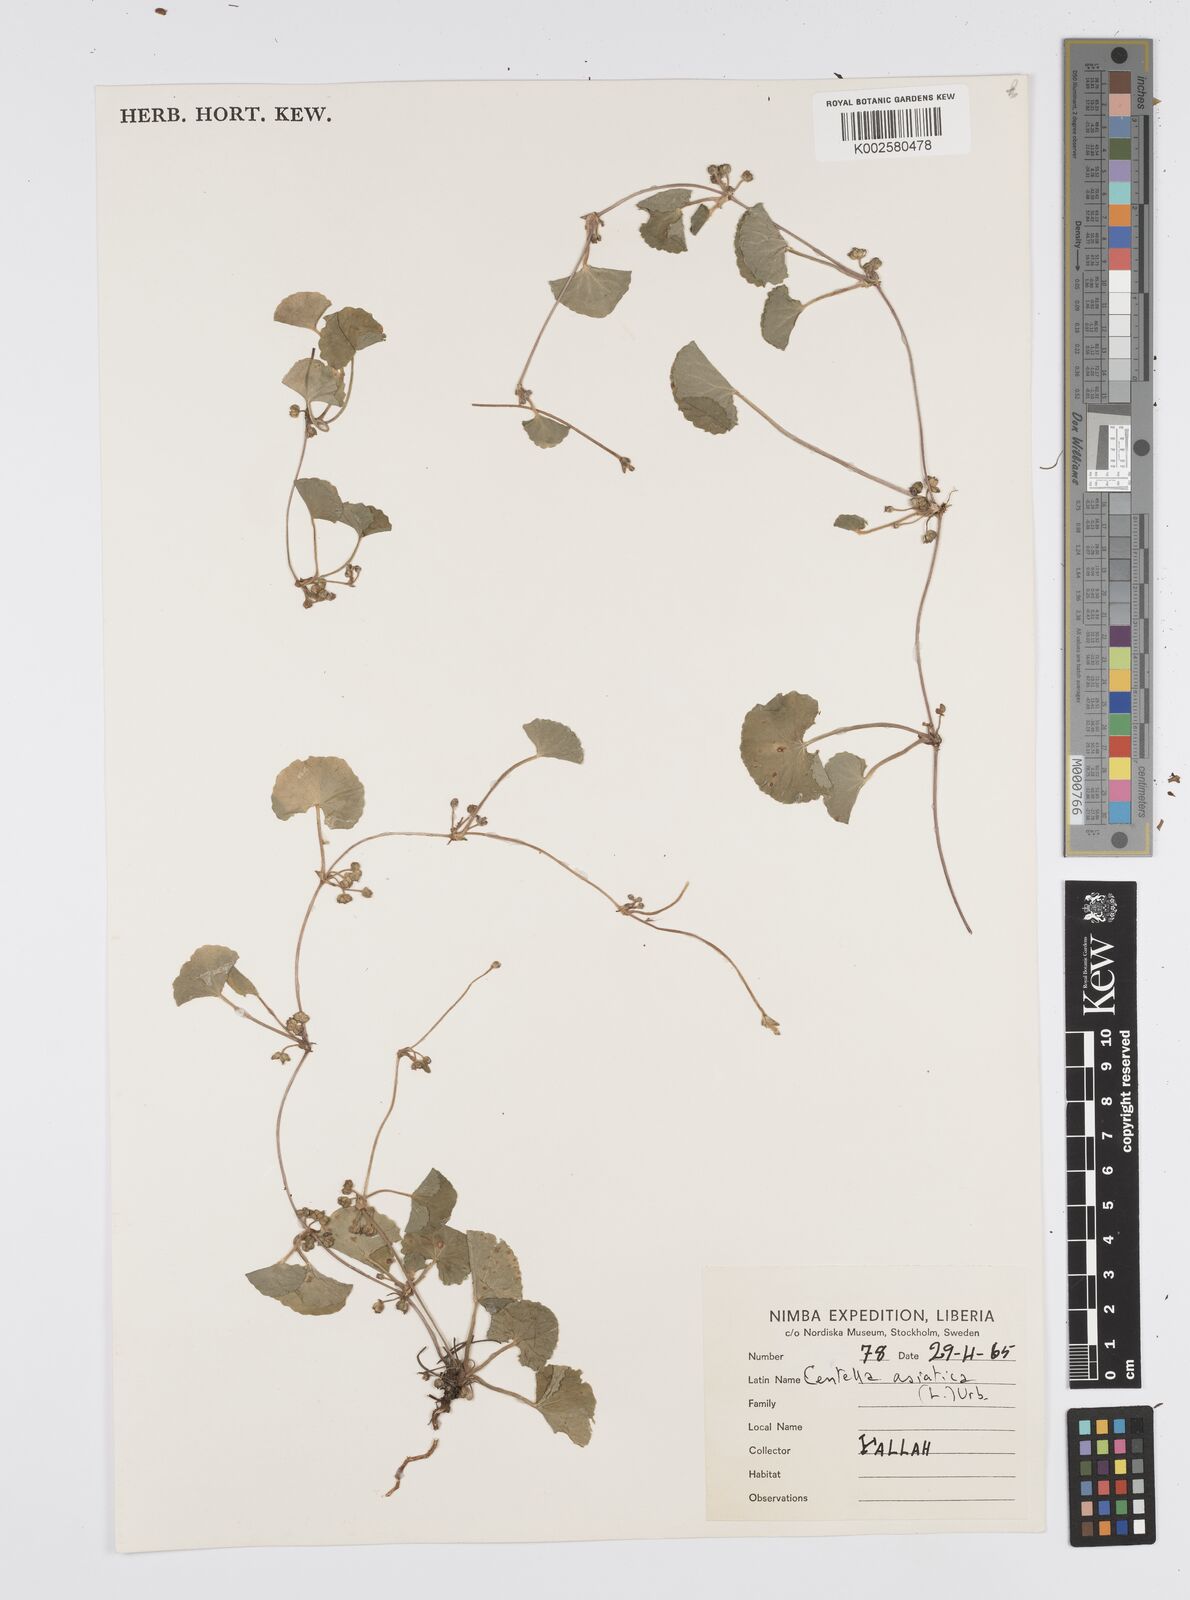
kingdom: Plantae
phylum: Tracheophyta
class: Magnoliopsida
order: Apiales
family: Apiaceae
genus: Centella
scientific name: Centella asiatica
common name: Spadeleaf
